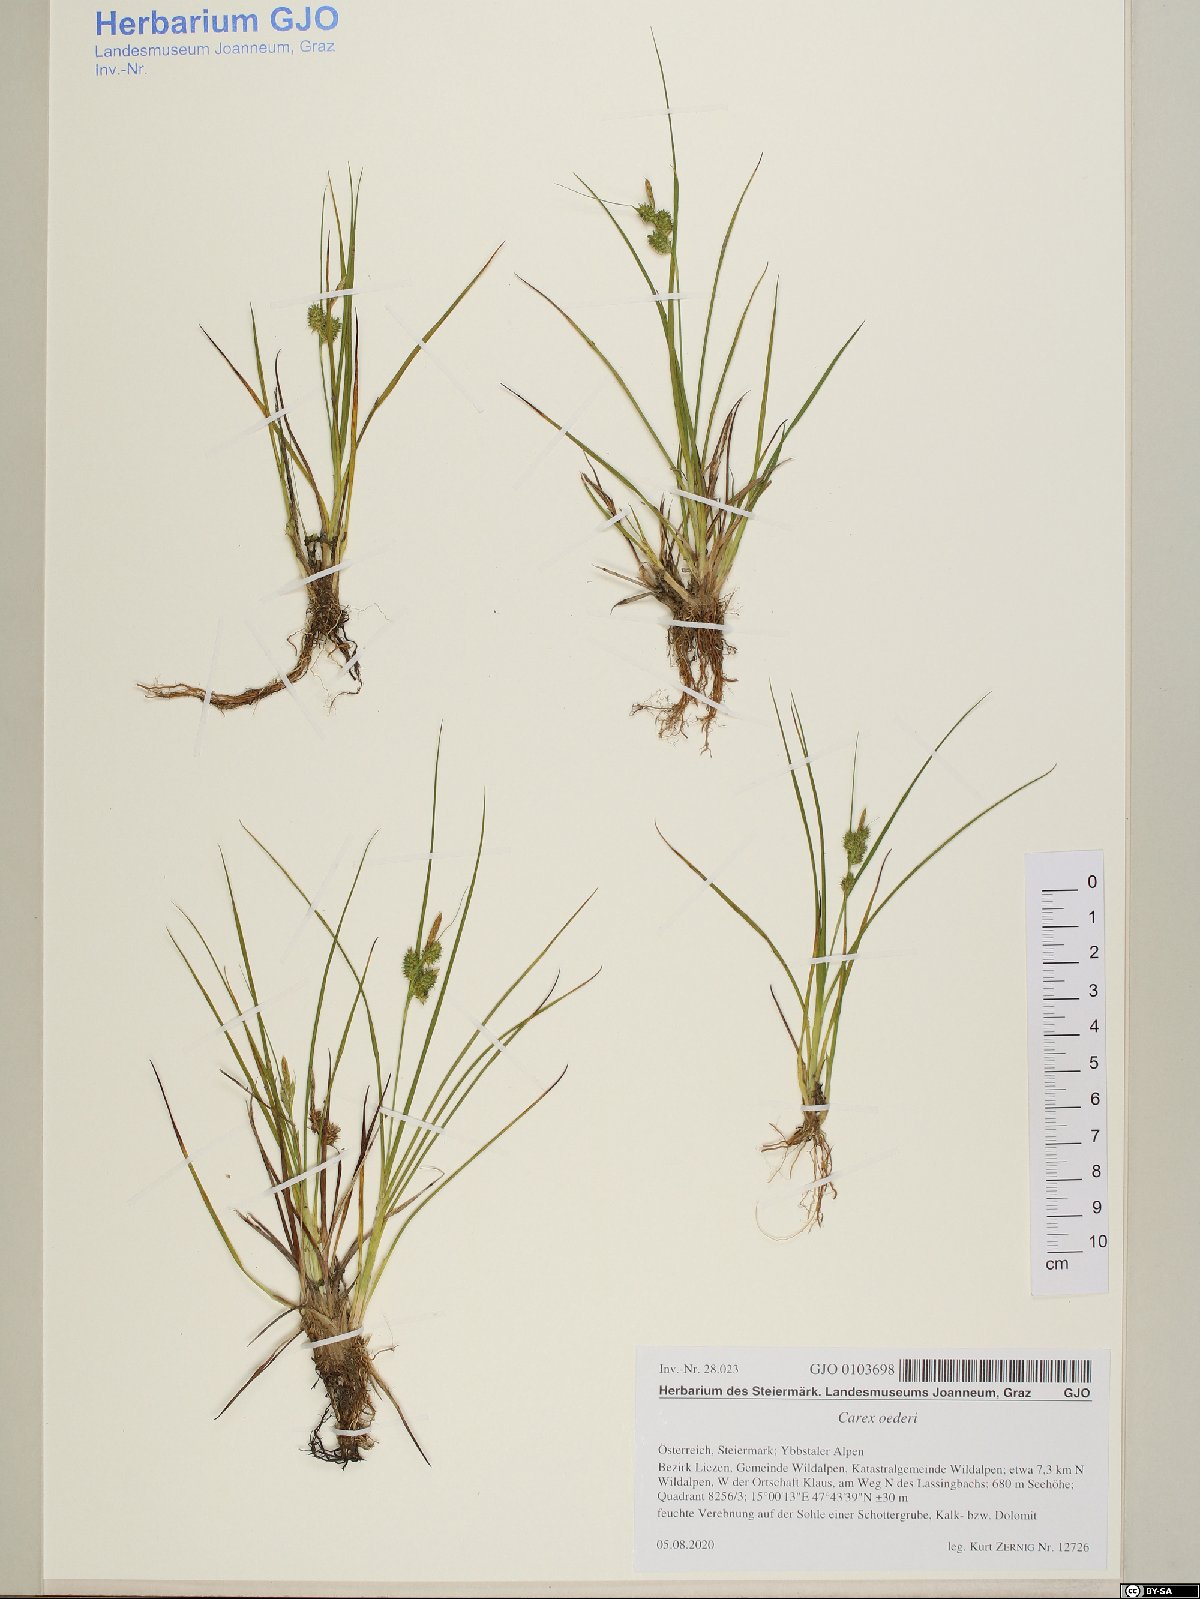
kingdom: Plantae
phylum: Tracheophyta
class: Liliopsida
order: Poales
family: Cyperaceae
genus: Carex
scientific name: Carex oederi
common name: Common & small-fruited yellow-sedge
